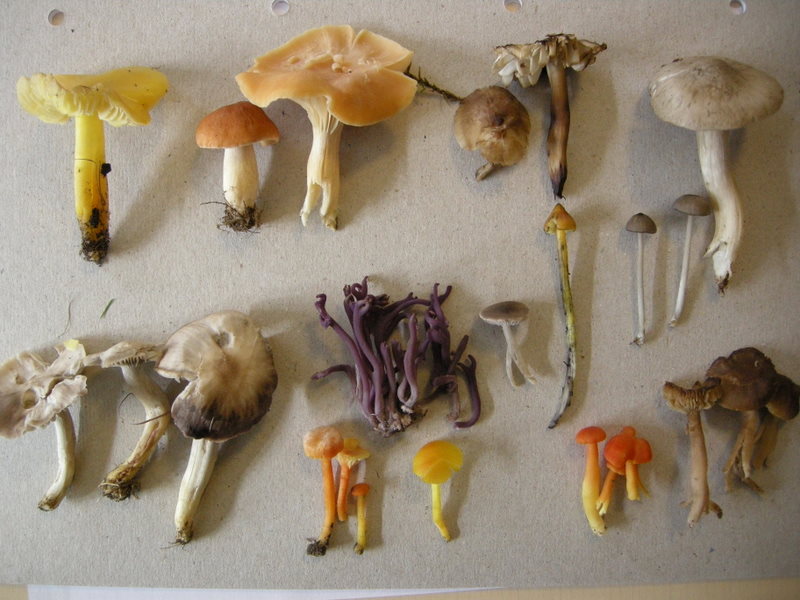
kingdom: Fungi
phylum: Basidiomycota
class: Agaricomycetes
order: Agaricales
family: Clavariaceae
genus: Camarophyllopsis
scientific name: Camarophyllopsis schulzeri
